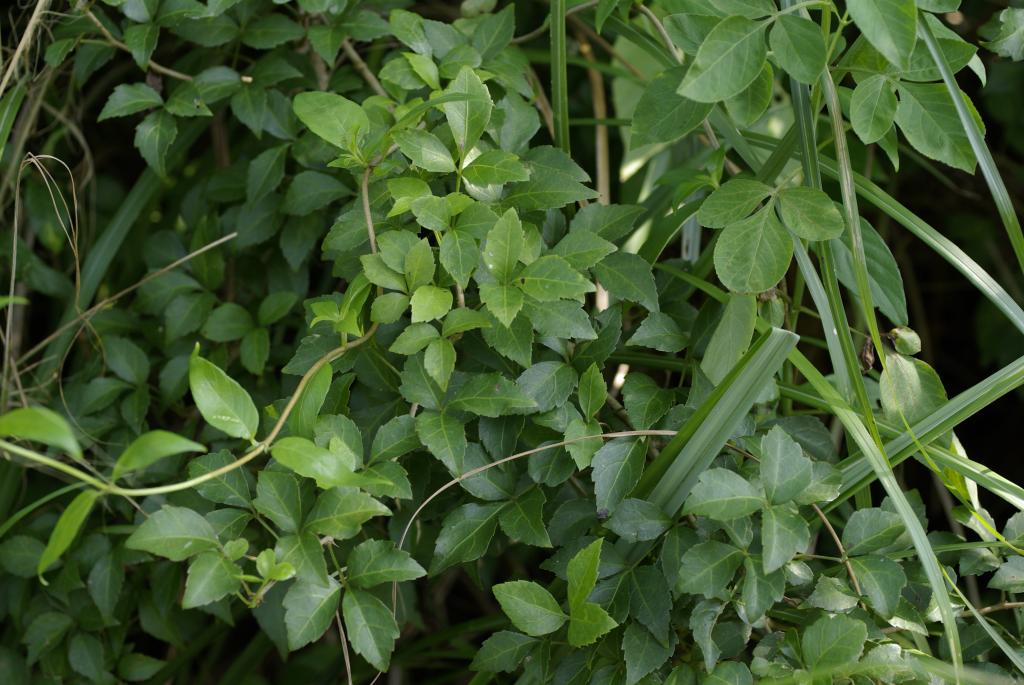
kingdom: Plantae
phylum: Tracheophyta
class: Magnoliopsida
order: Apiales
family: Araliaceae
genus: Eleutherococcus
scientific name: Eleutherococcus trifoliatus
